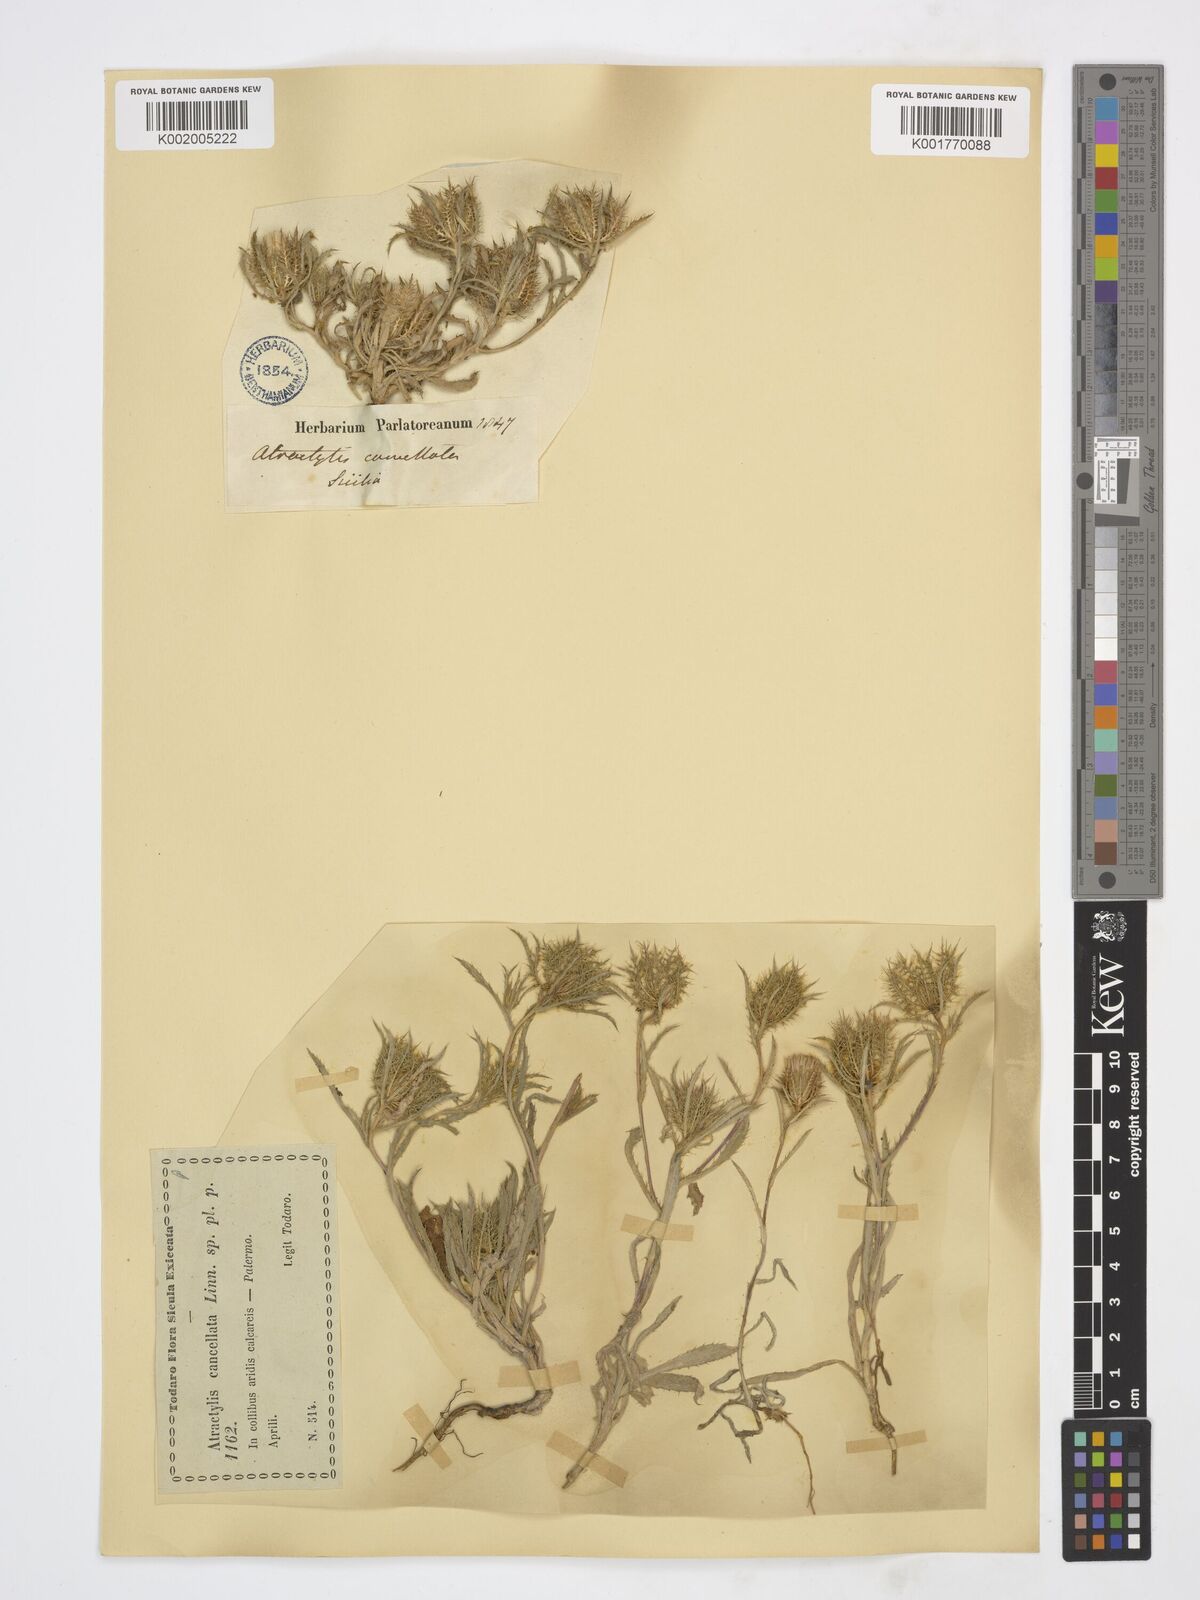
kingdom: Plantae
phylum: Tracheophyta
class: Magnoliopsida
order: Asterales
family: Asteraceae
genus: Atractylis
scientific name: Atractylis cancellata
